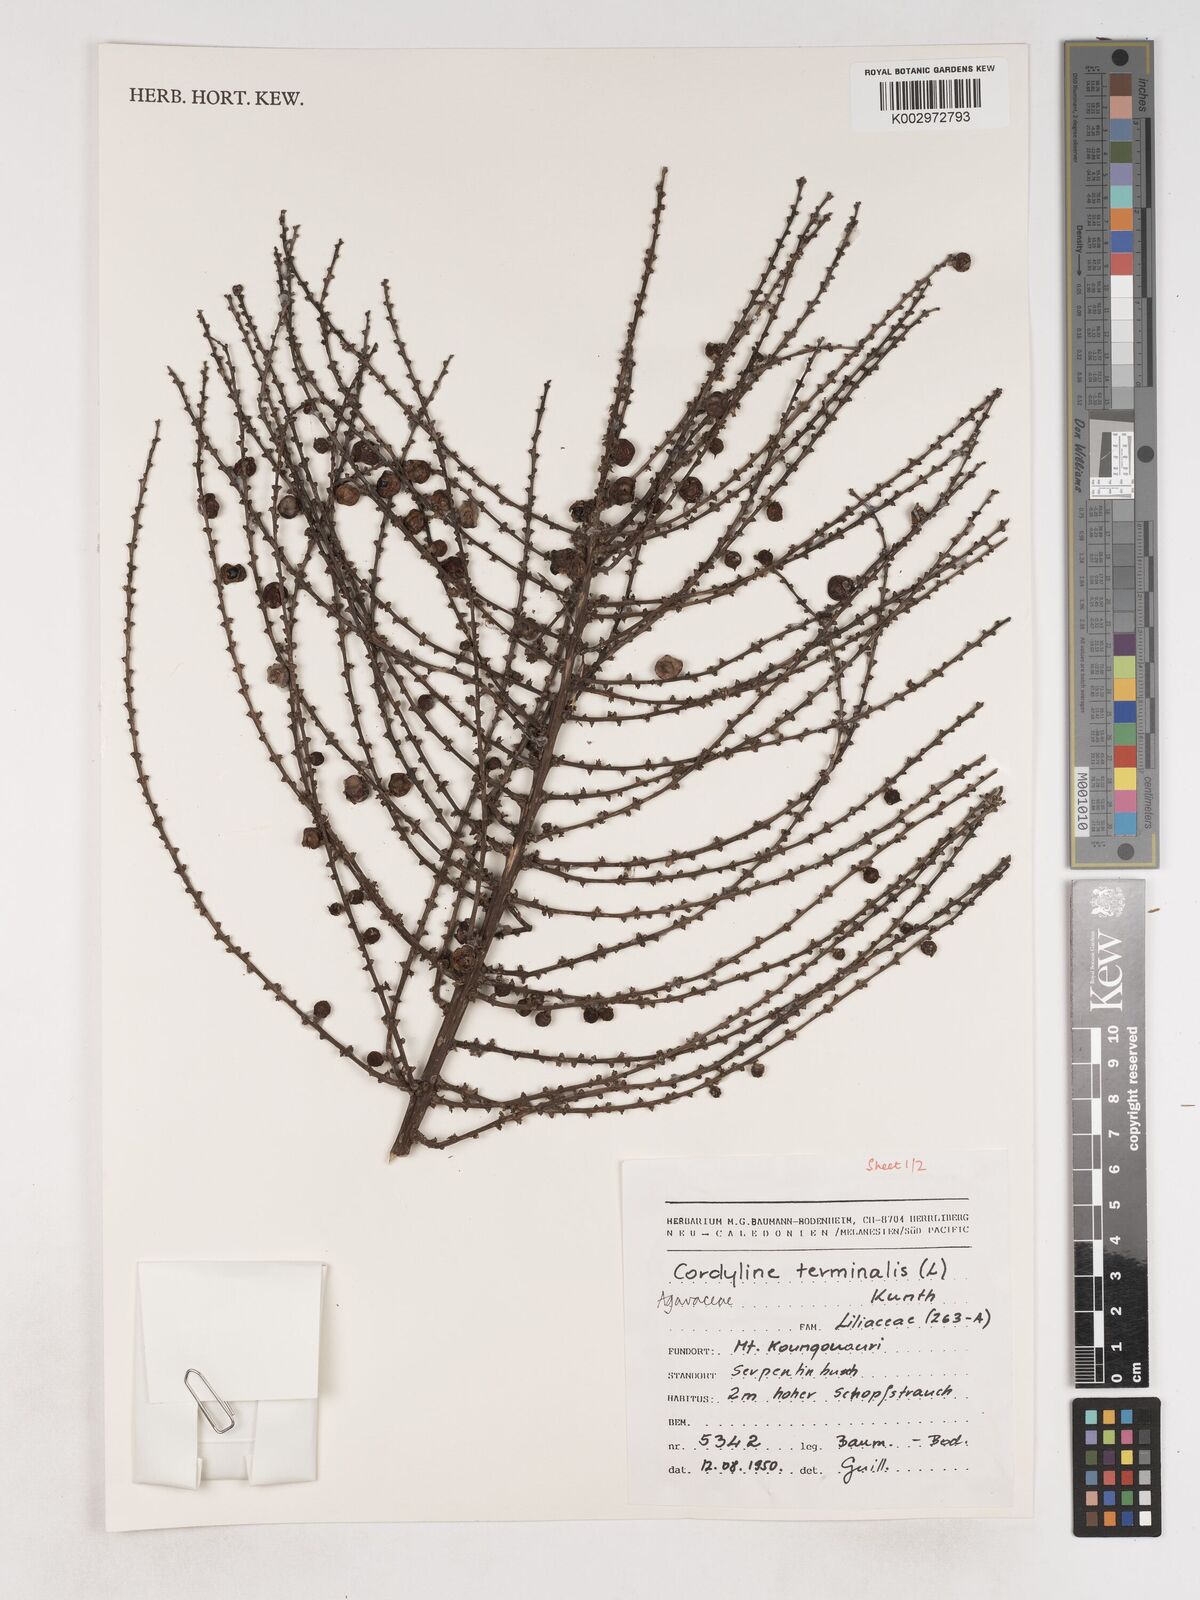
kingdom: Plantae
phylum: Tracheophyta
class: Liliopsida
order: Asparagales
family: Asparagaceae
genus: Cordyline
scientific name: Cordyline fruticosa
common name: Good-luck-plant
